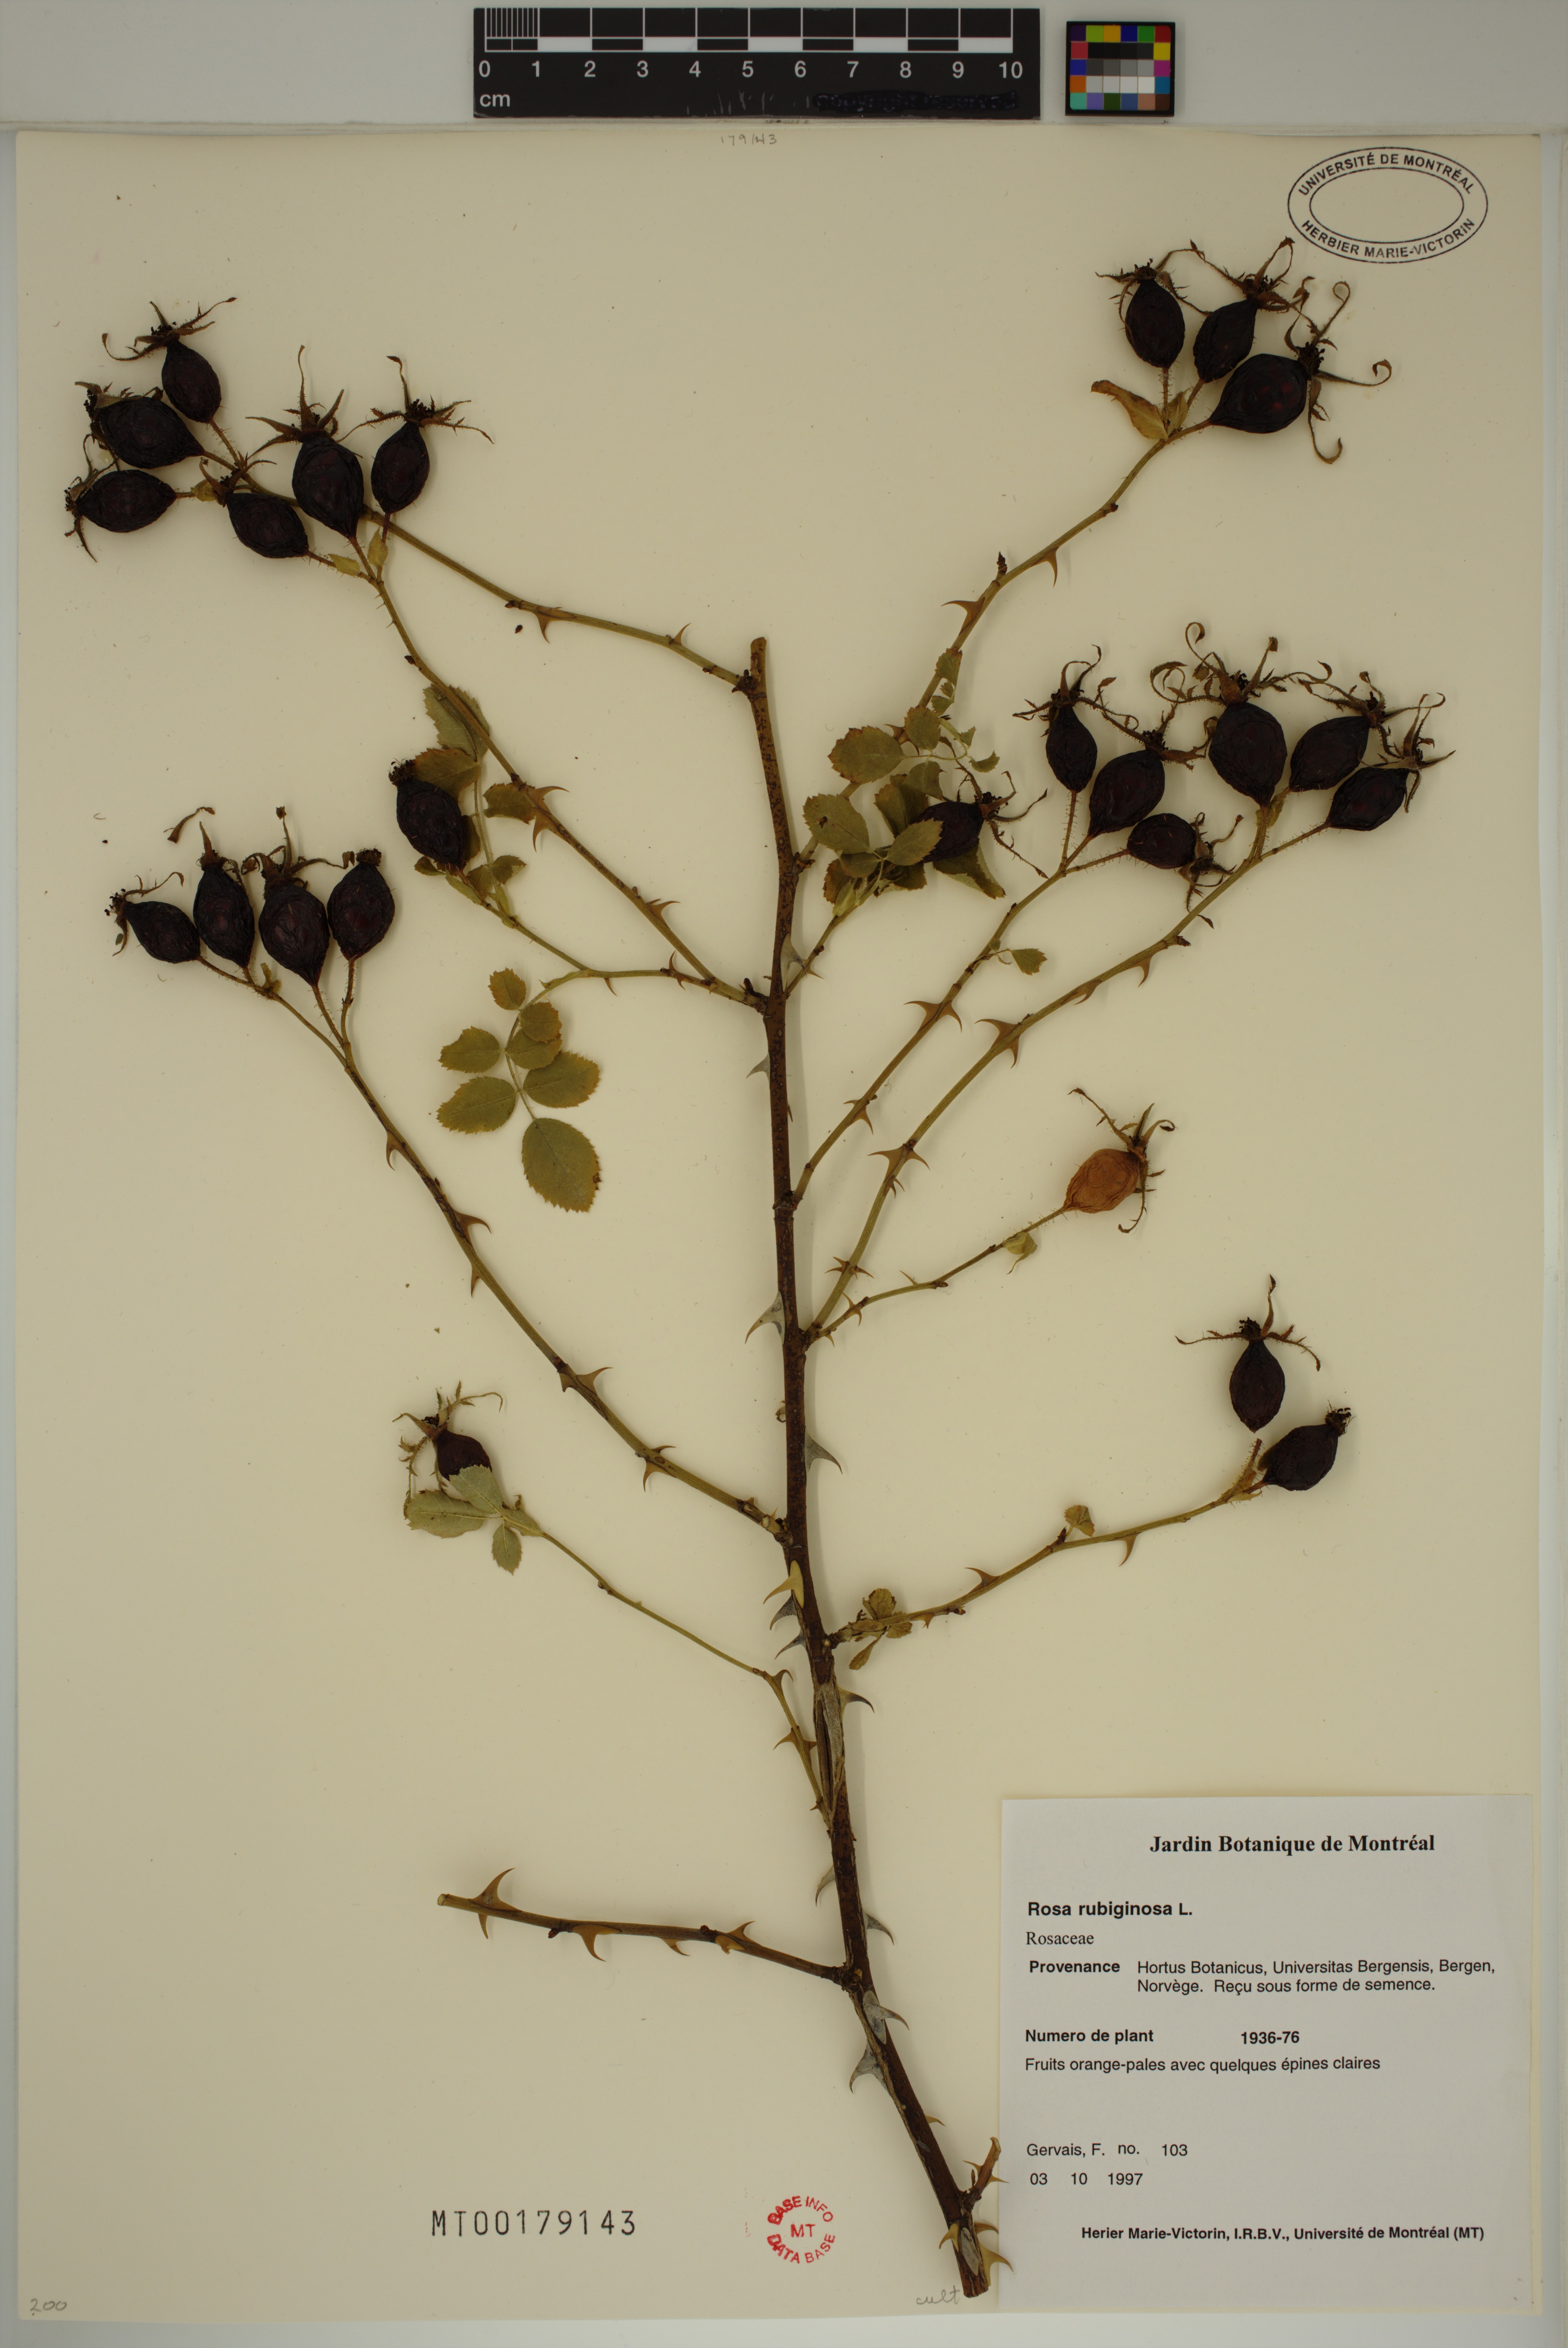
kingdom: Plantae
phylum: Tracheophyta
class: Magnoliopsida
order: Rosales
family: Rosaceae
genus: Rosa
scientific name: Rosa rubiginosa
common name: Sweet-briar
